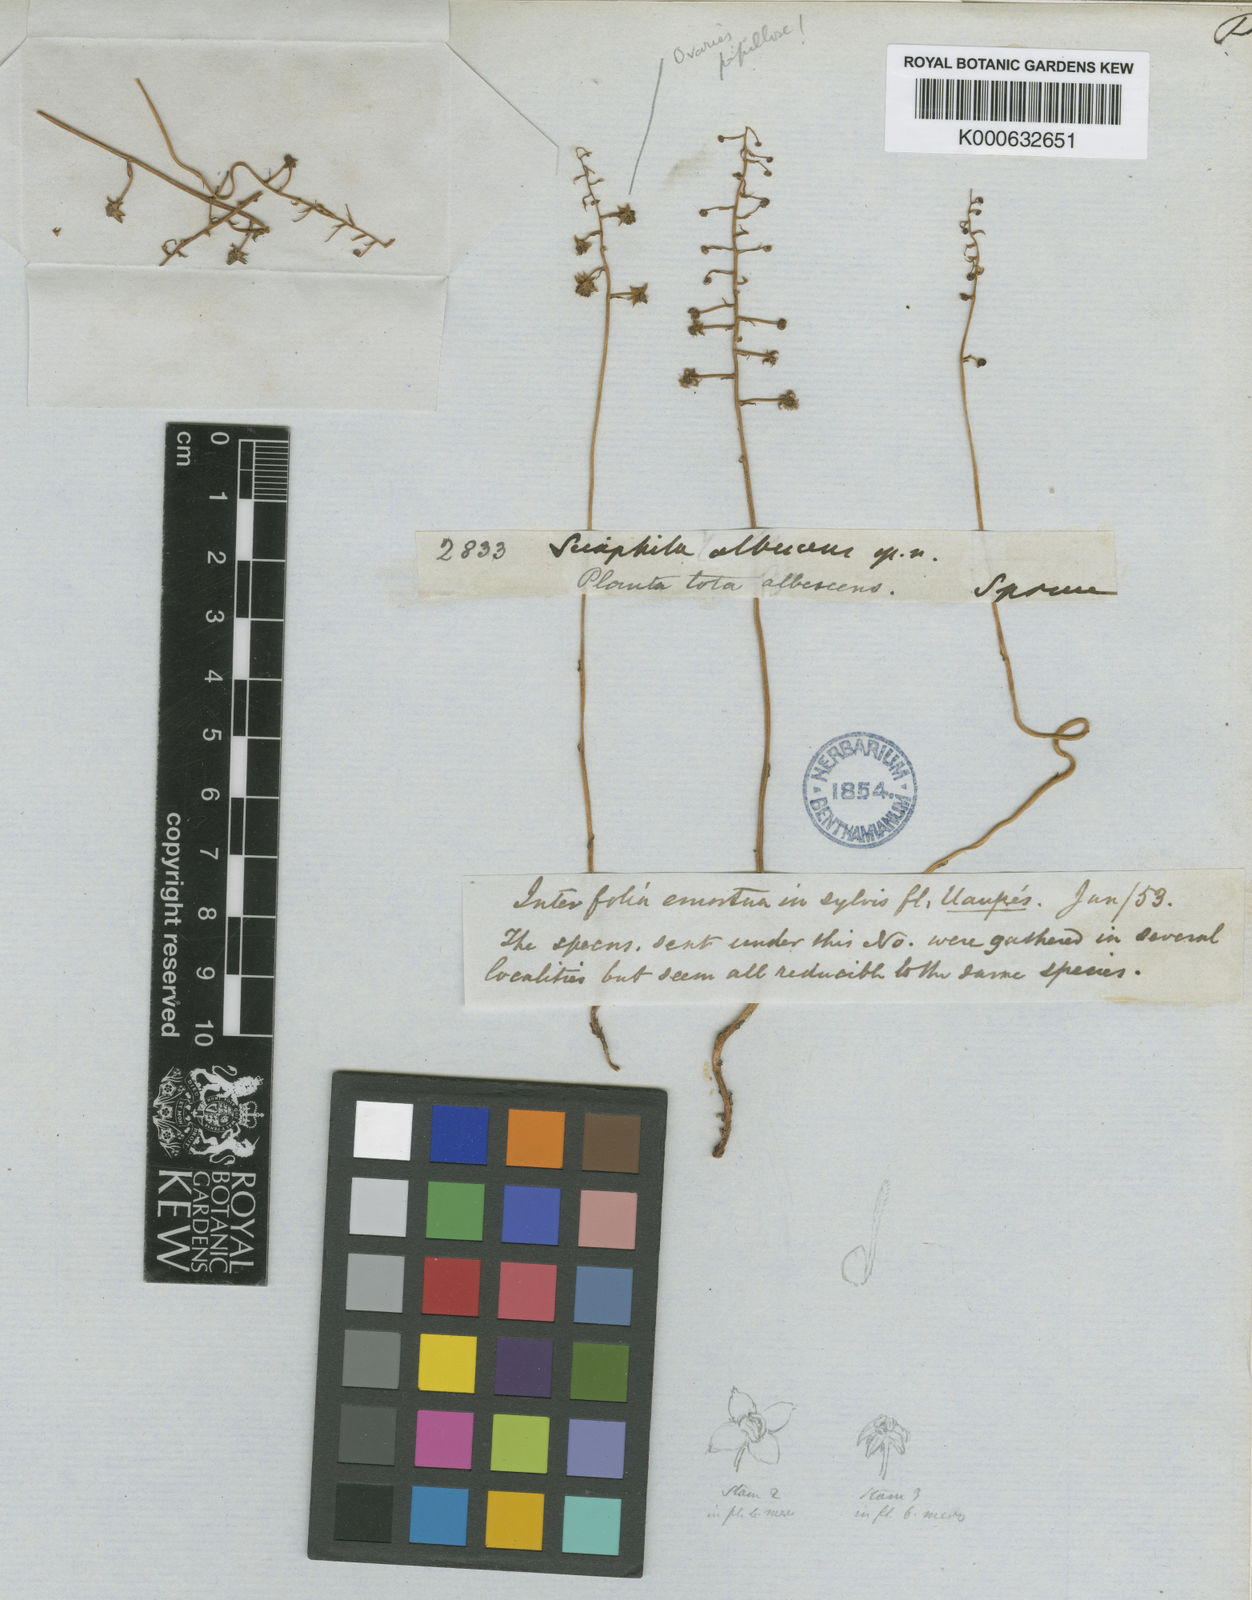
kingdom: Plantae
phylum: Tracheophyta
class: Liliopsida
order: Pandanales
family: Triuridaceae
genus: Sciaphila
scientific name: Sciaphila albescens
